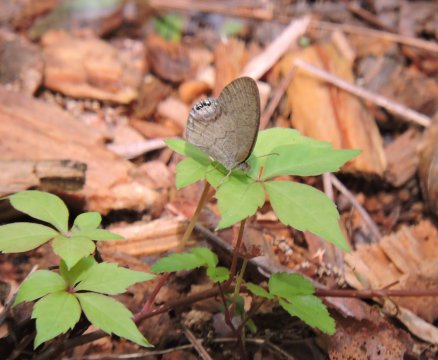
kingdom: Animalia
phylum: Arthropoda
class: Insecta
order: Lepidoptera
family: Nymphalidae
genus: Euptychia
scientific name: Euptychia cornelius
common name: Gemmed Satyr
